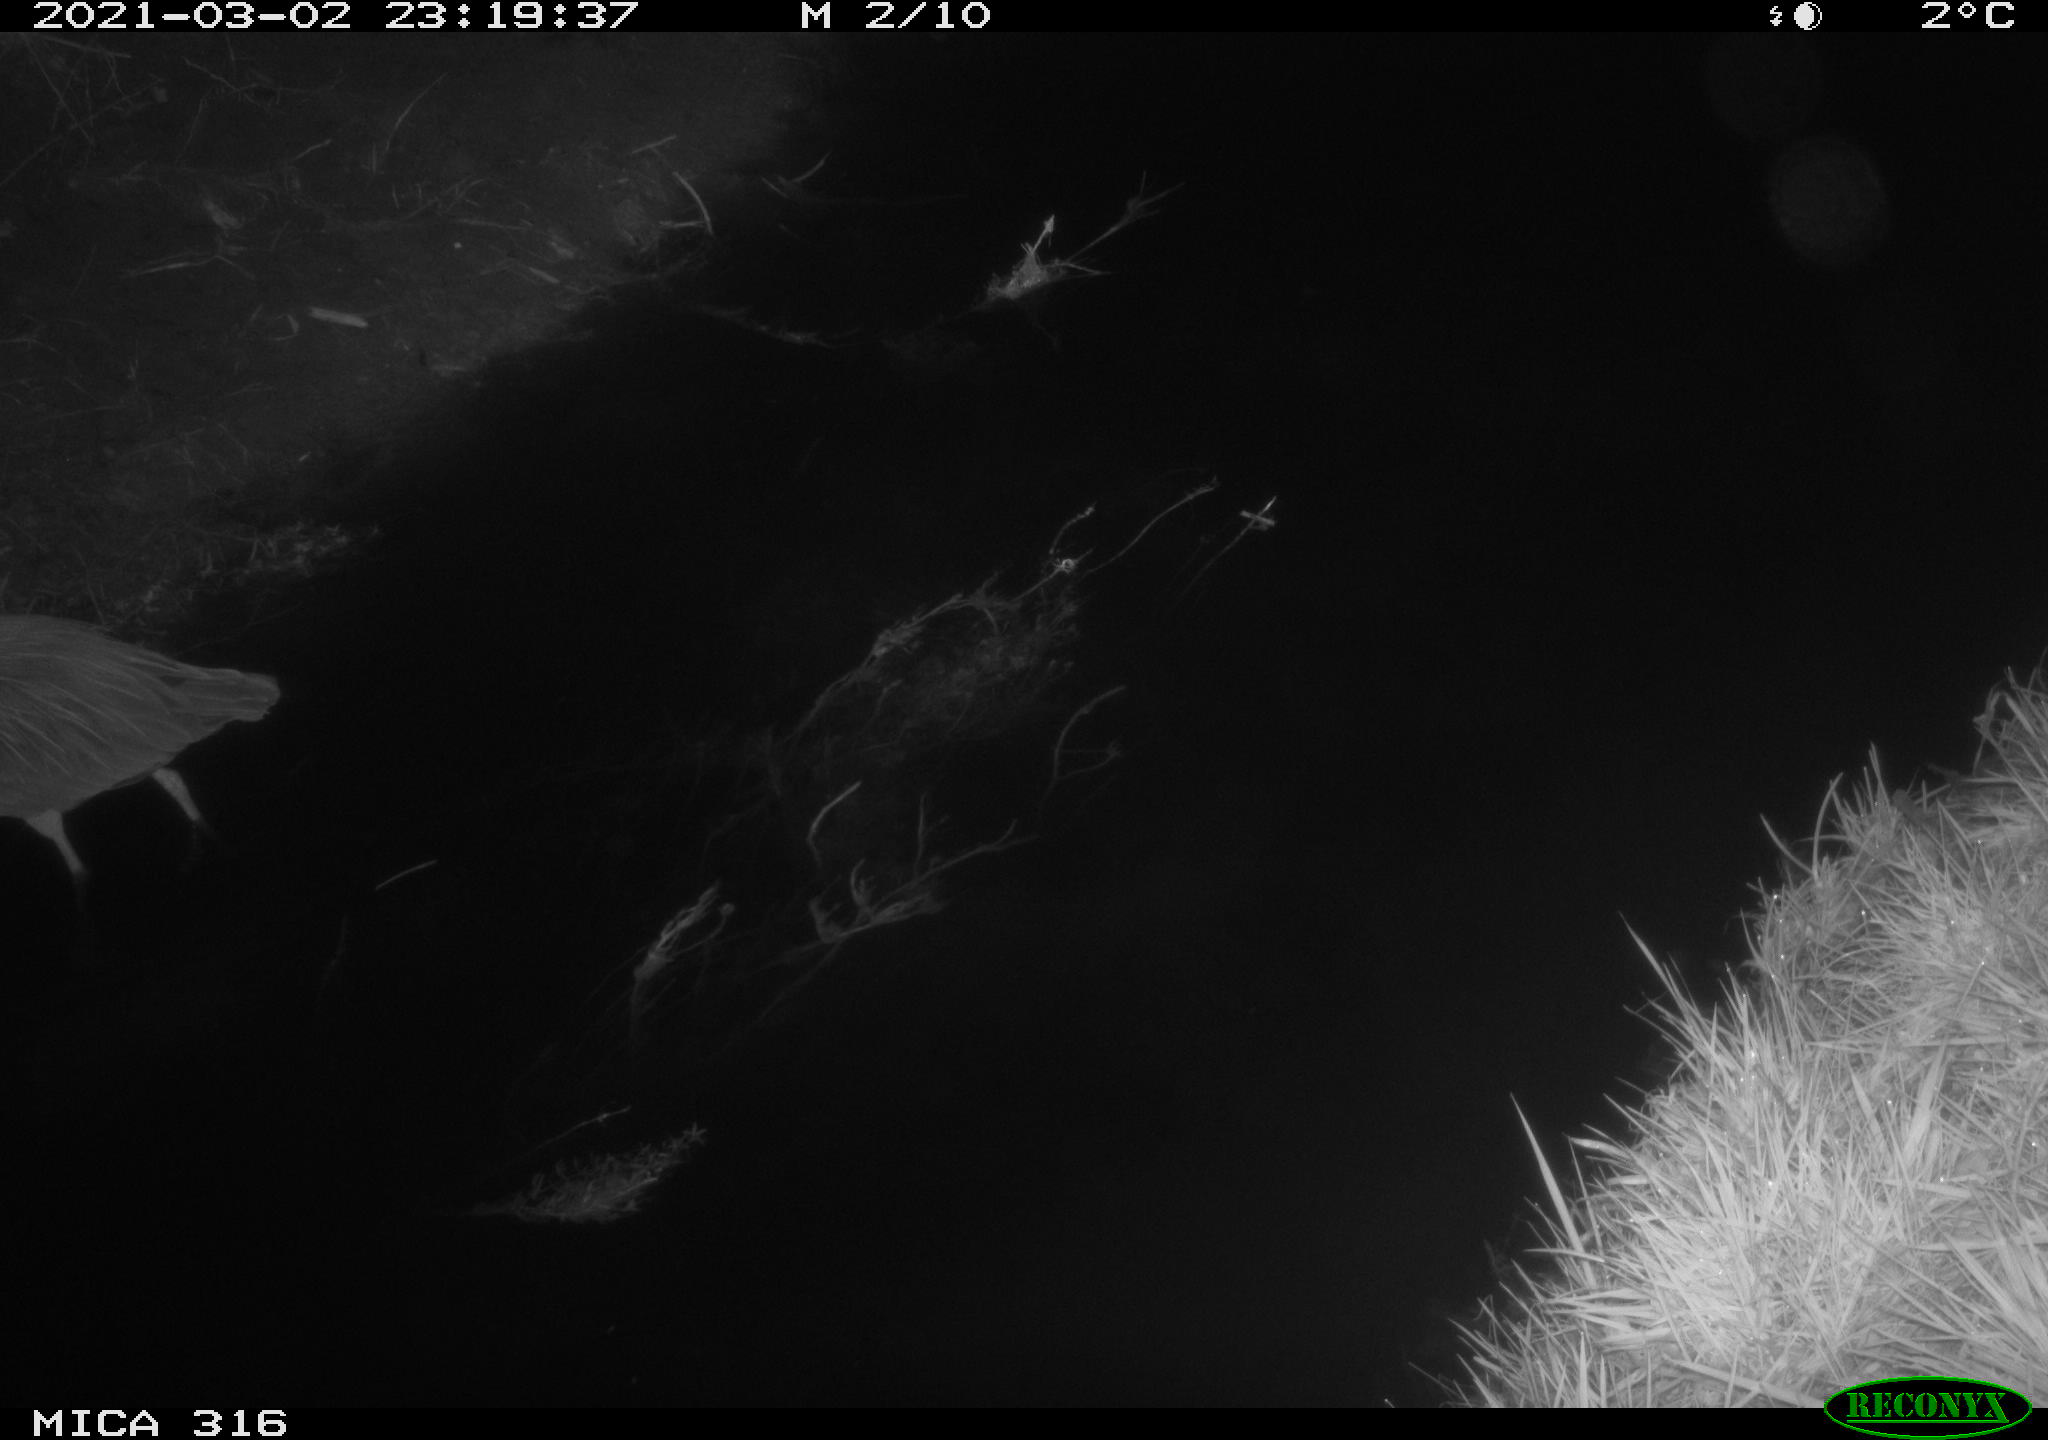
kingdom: Animalia
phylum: Chordata
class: Aves
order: Pelecaniformes
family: Ardeidae
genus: Ardea
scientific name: Ardea cinerea
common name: Grey heron
